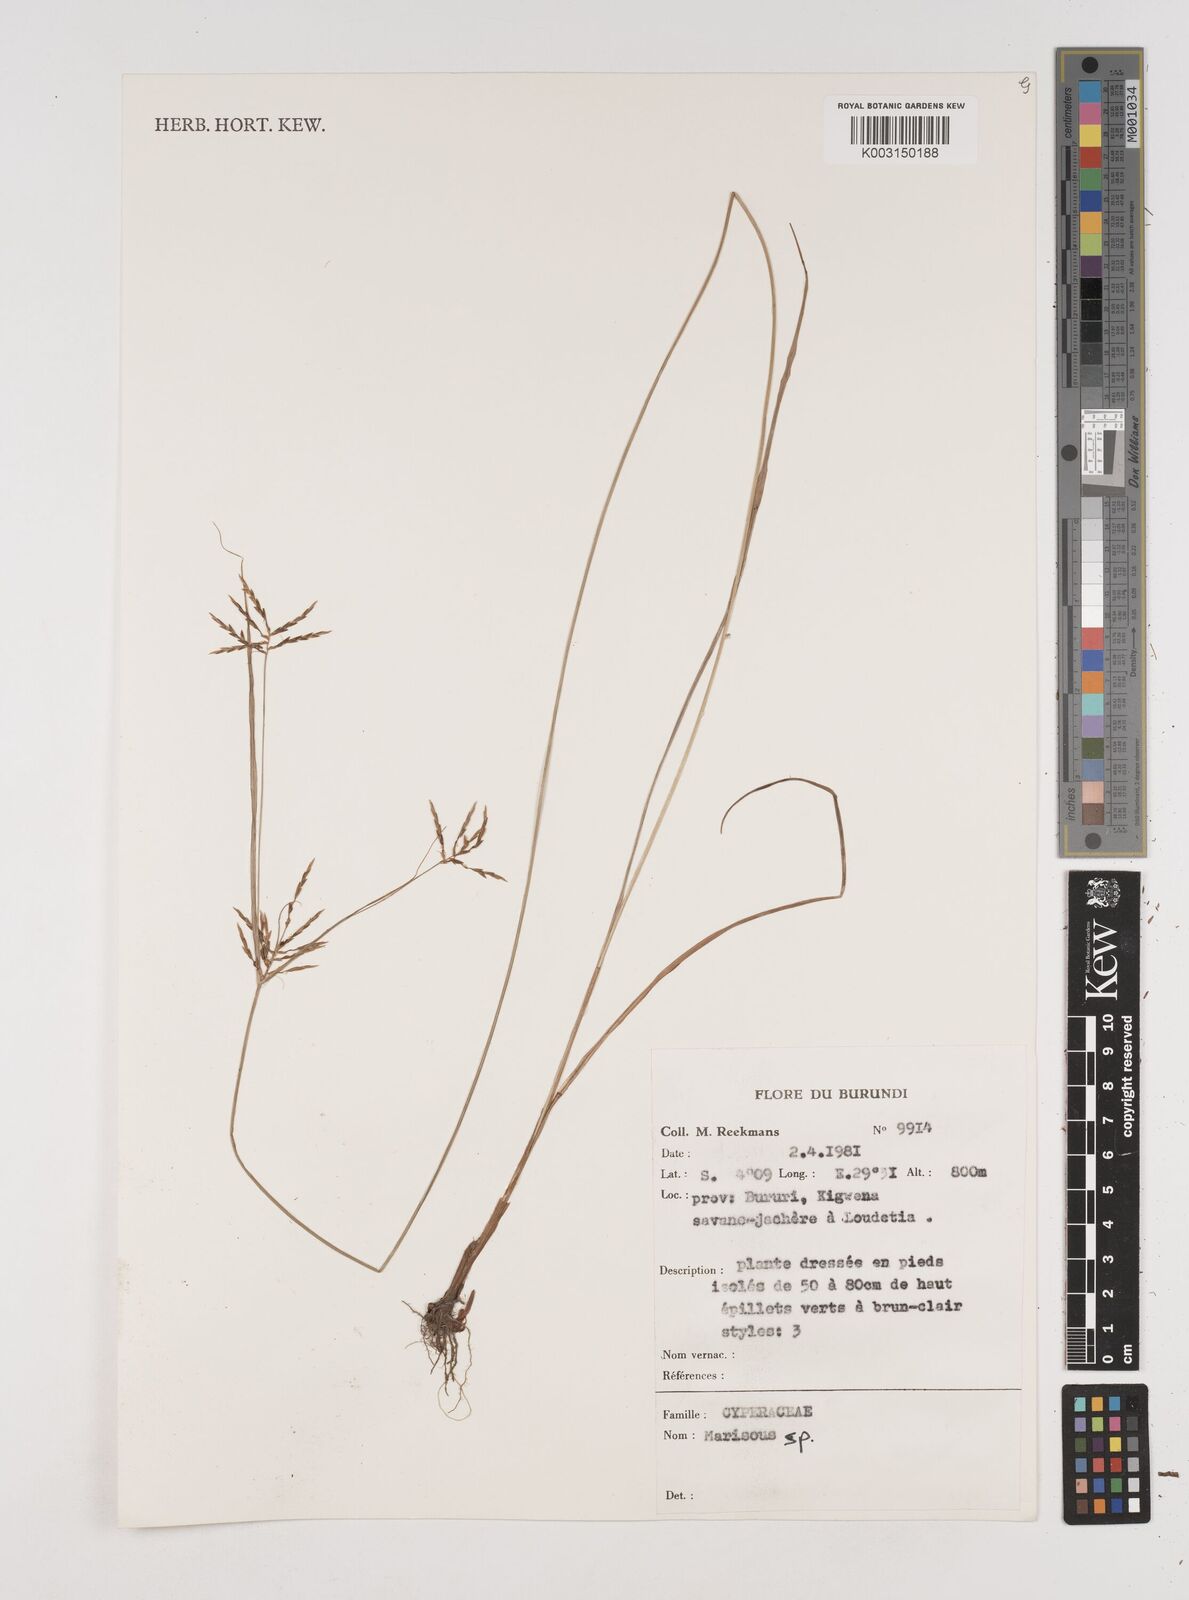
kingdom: Plantae
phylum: Tracheophyta
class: Liliopsida
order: Poales
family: Cyperaceae
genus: Cyperus
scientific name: Cyperus
